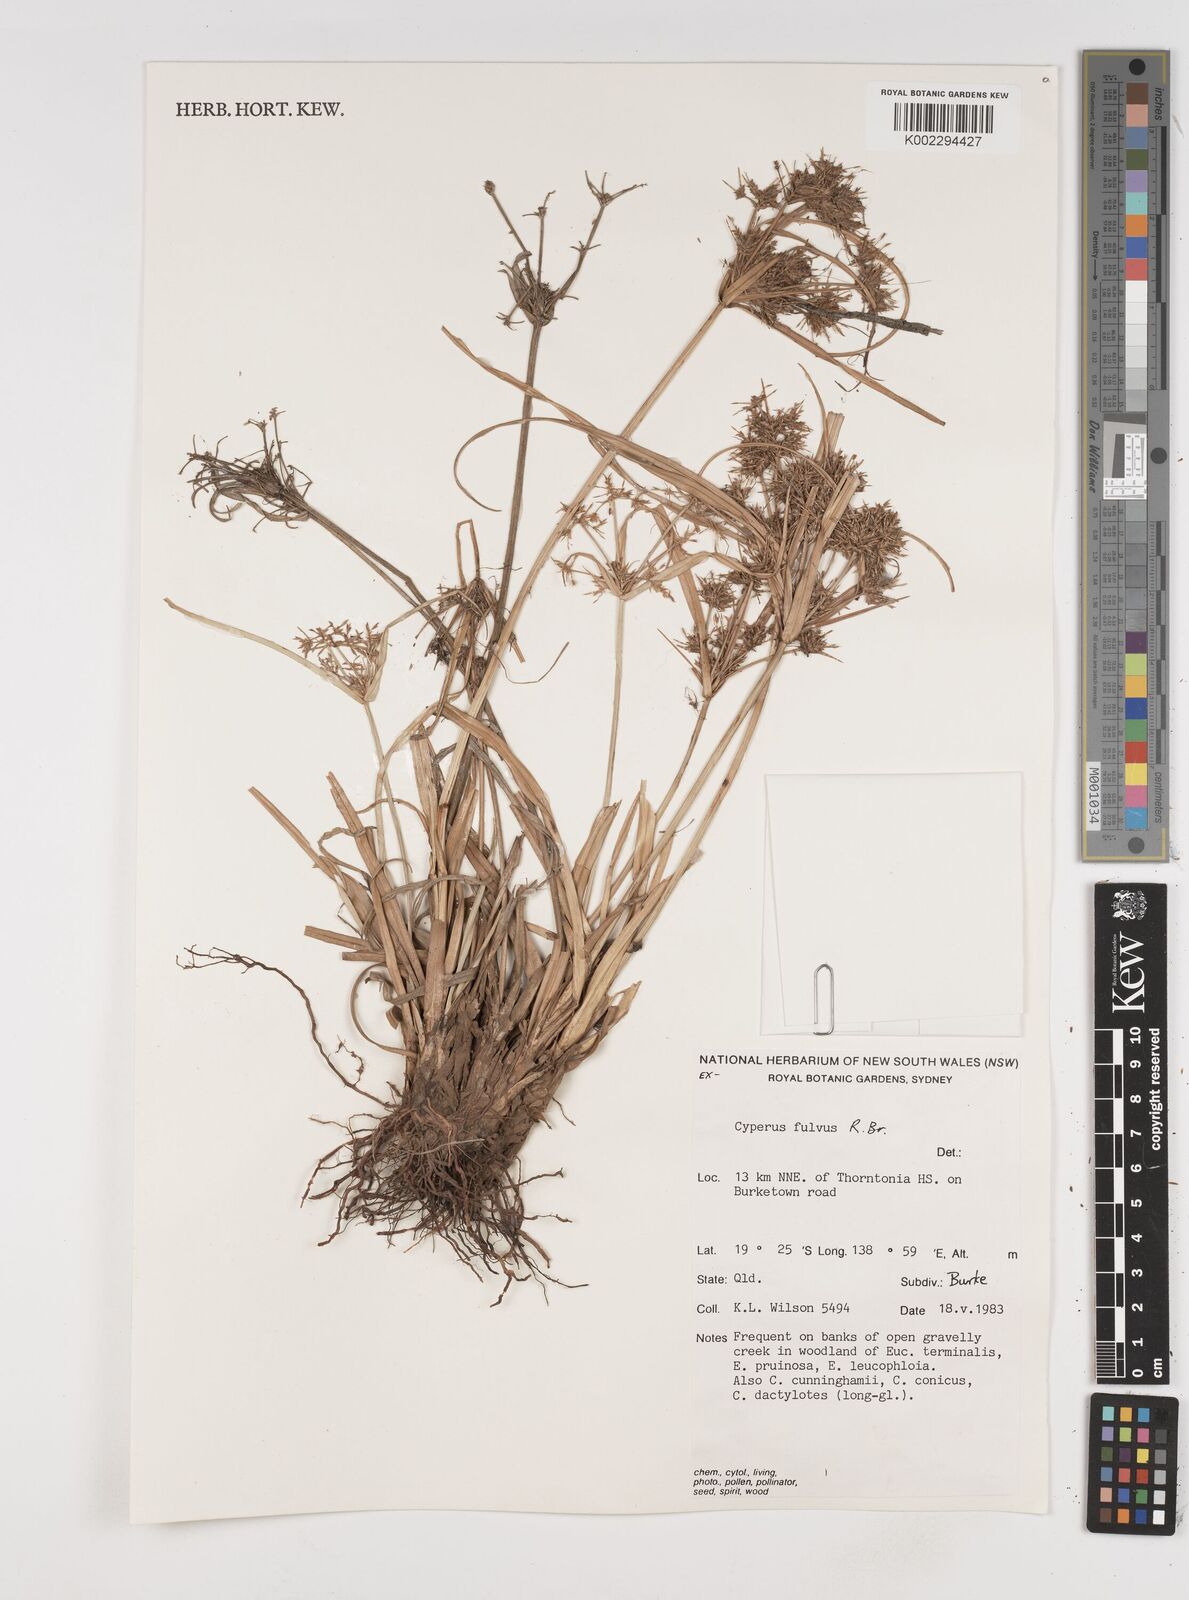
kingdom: Plantae
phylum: Tracheophyta
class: Liliopsida
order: Poales
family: Cyperaceae
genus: Cyperus
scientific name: Cyperus fulvus
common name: Sticky sedge
